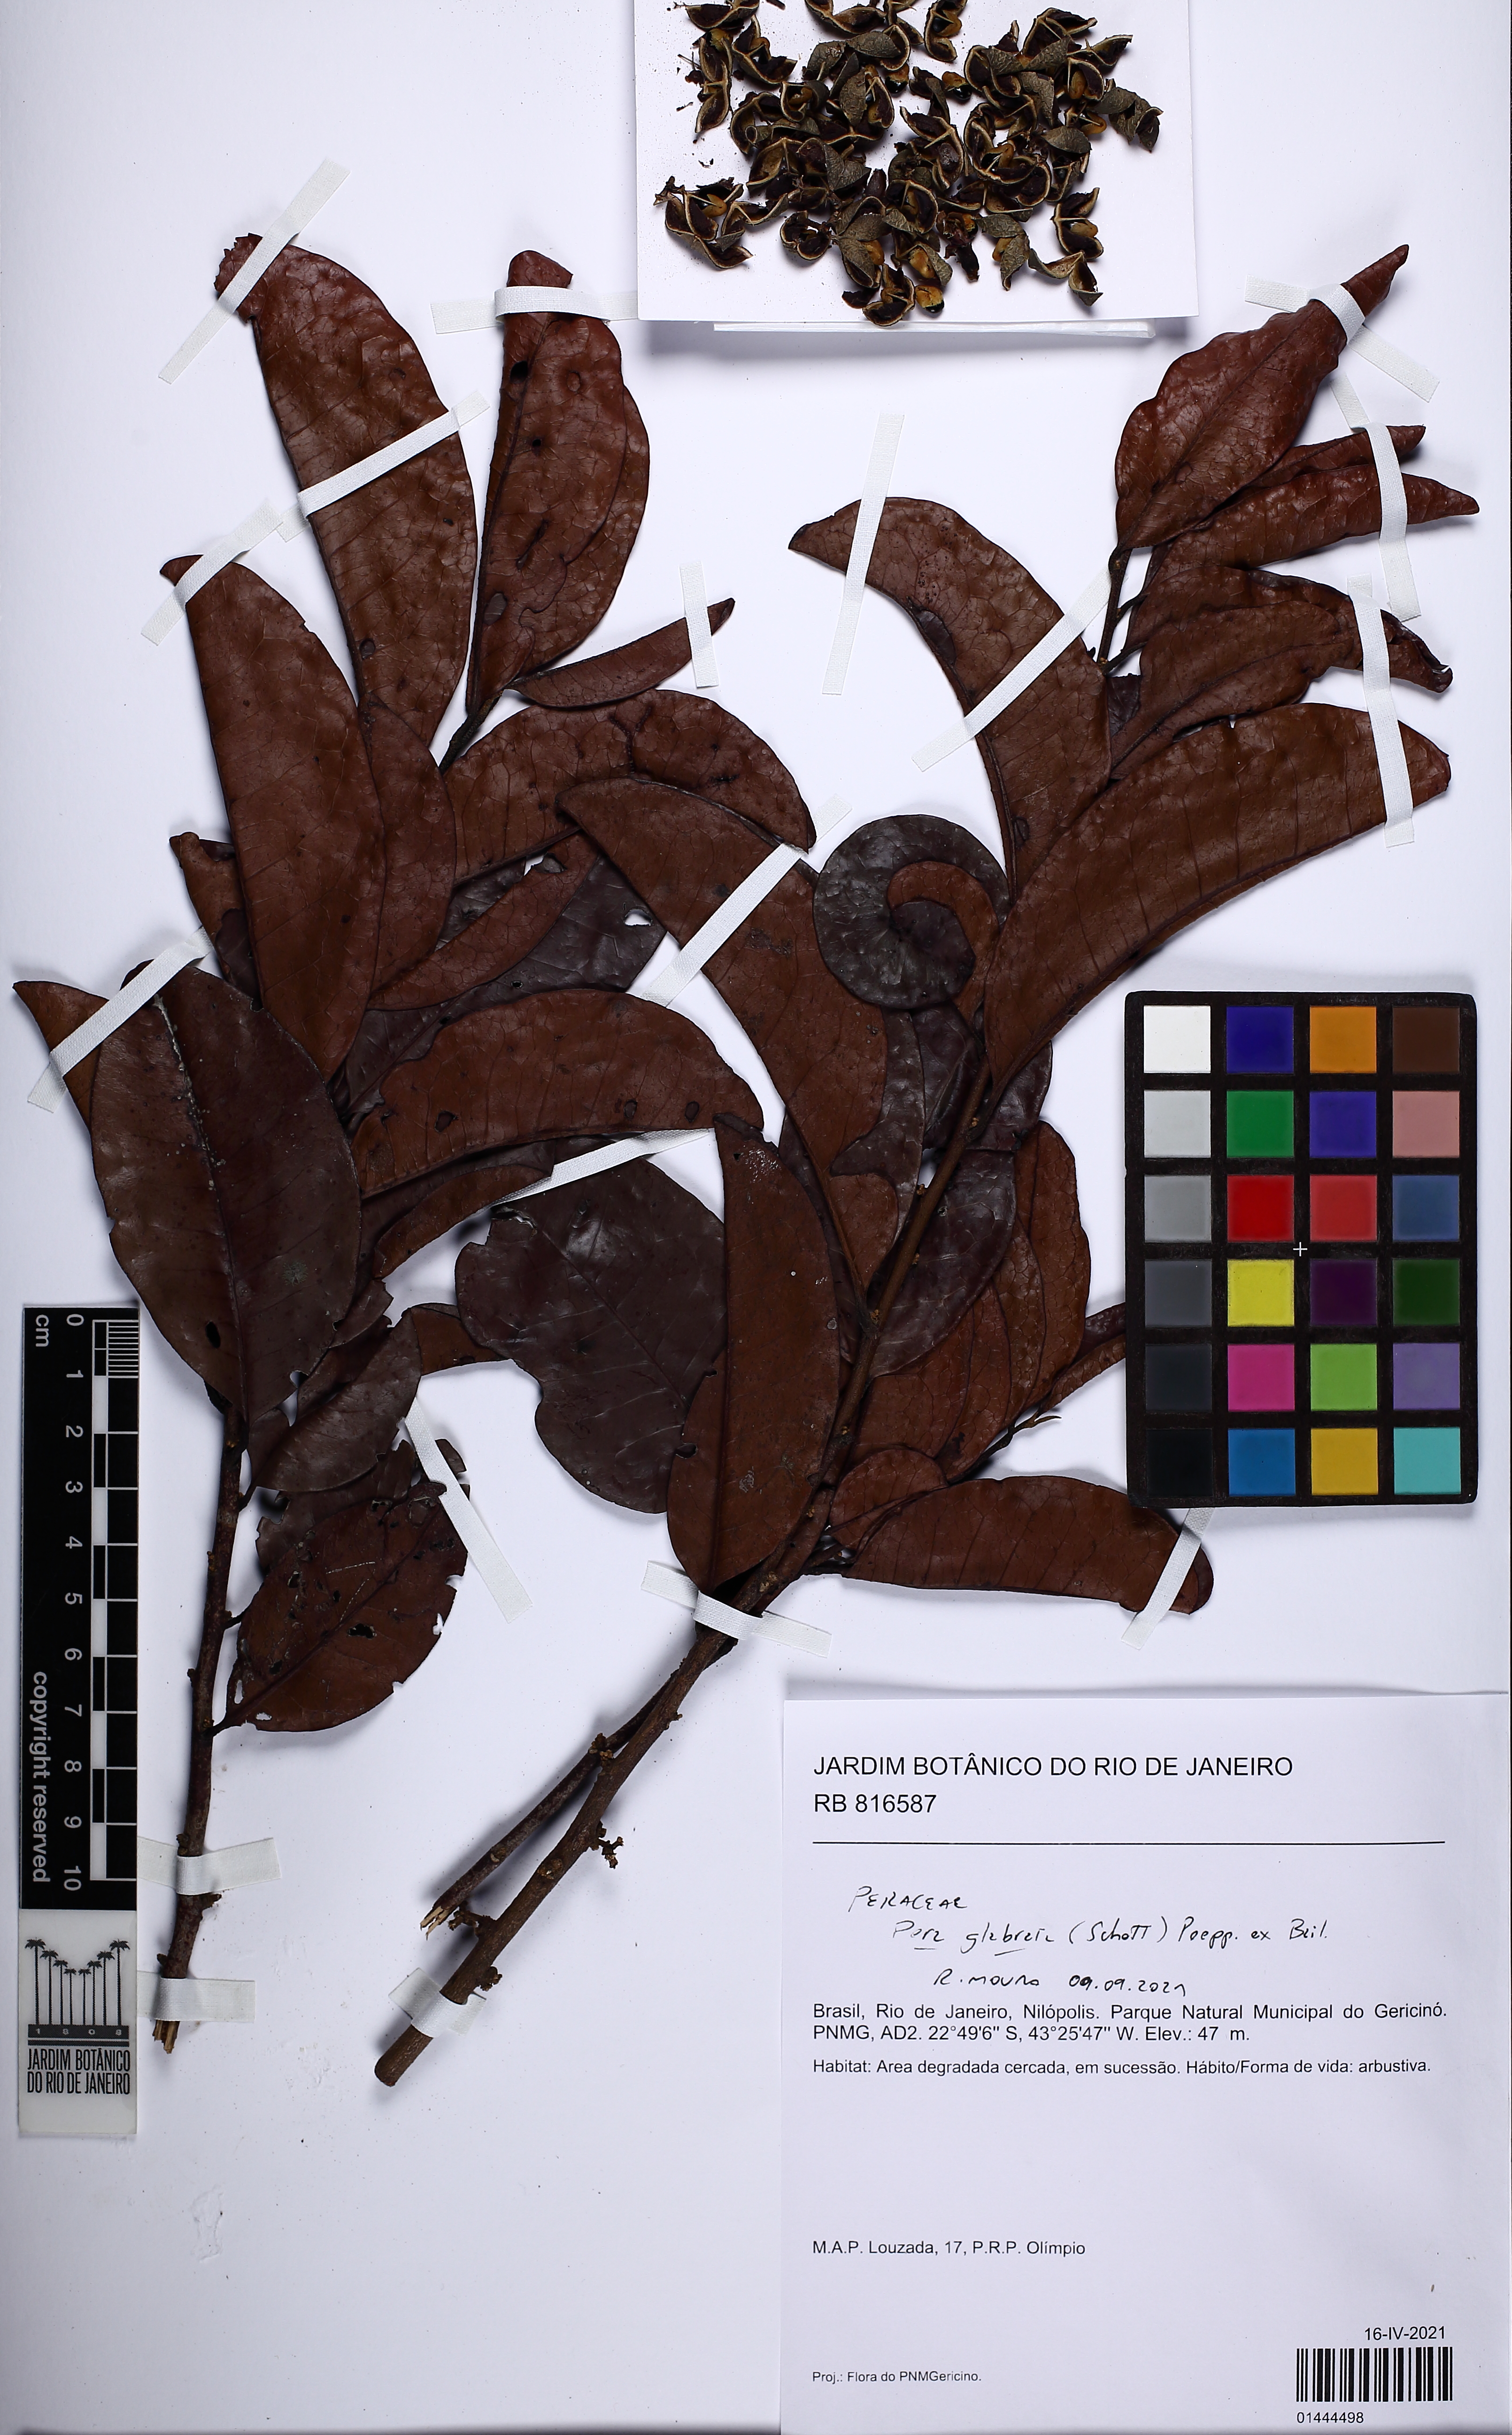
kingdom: Plantae
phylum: Tracheophyta
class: Magnoliopsida
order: Malpighiales
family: Peraceae
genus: Pera
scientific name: Pera glabrata
